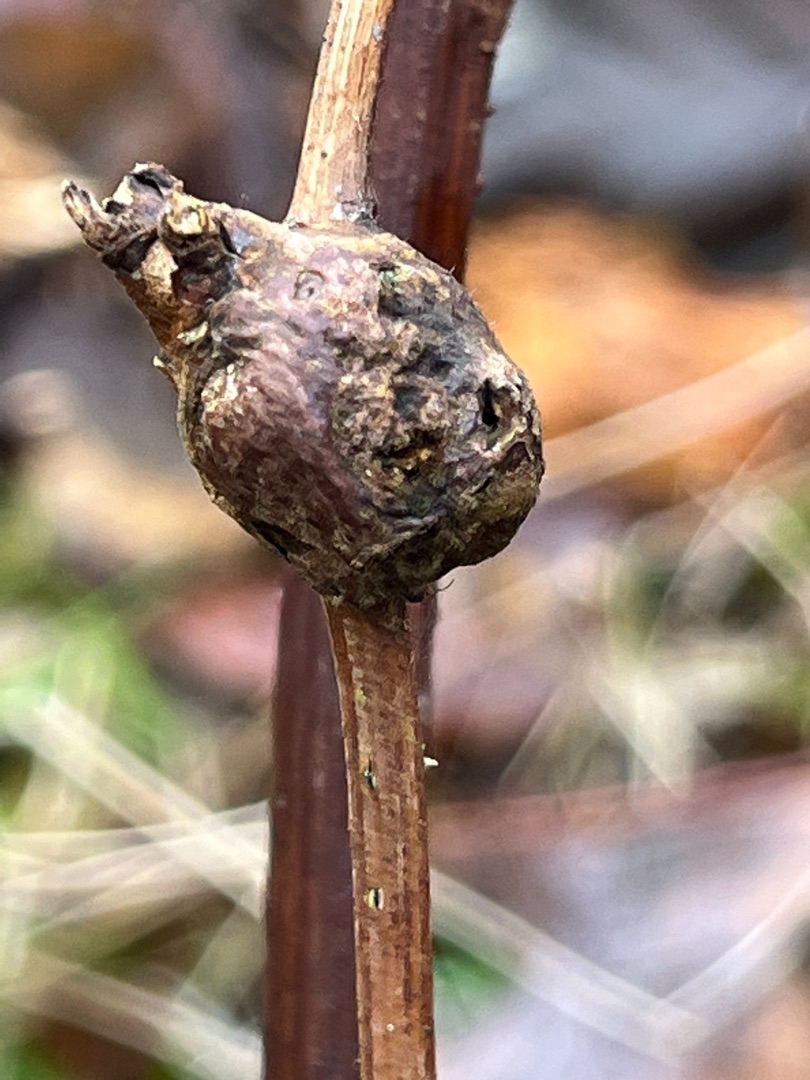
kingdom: Animalia
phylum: Arthropoda
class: Insecta
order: Diptera
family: Cecidomyiidae
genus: Lasioptera
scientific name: Lasioptera rubi
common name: Hindbærstængelgalmyg
